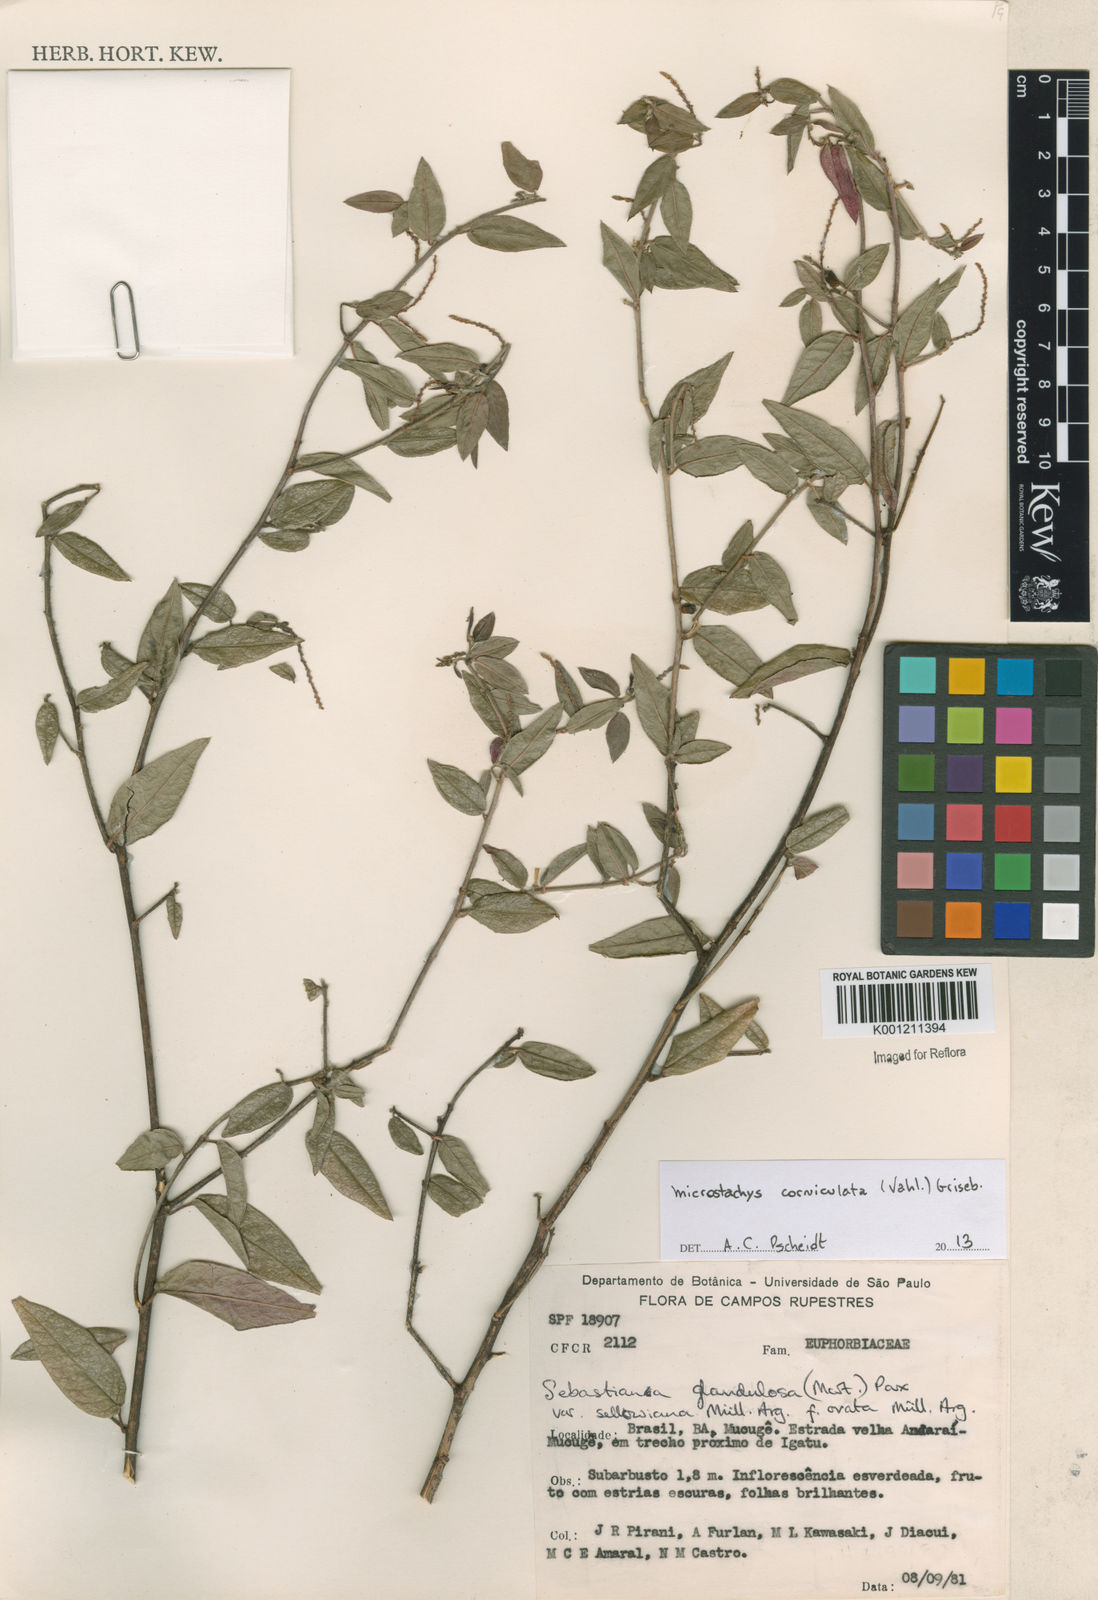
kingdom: Plantae
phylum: Tracheophyta
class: Magnoliopsida
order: Malpighiales
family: Euphorbiaceae
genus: Microstachys
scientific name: Microstachys corniculata
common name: Hato tejas
